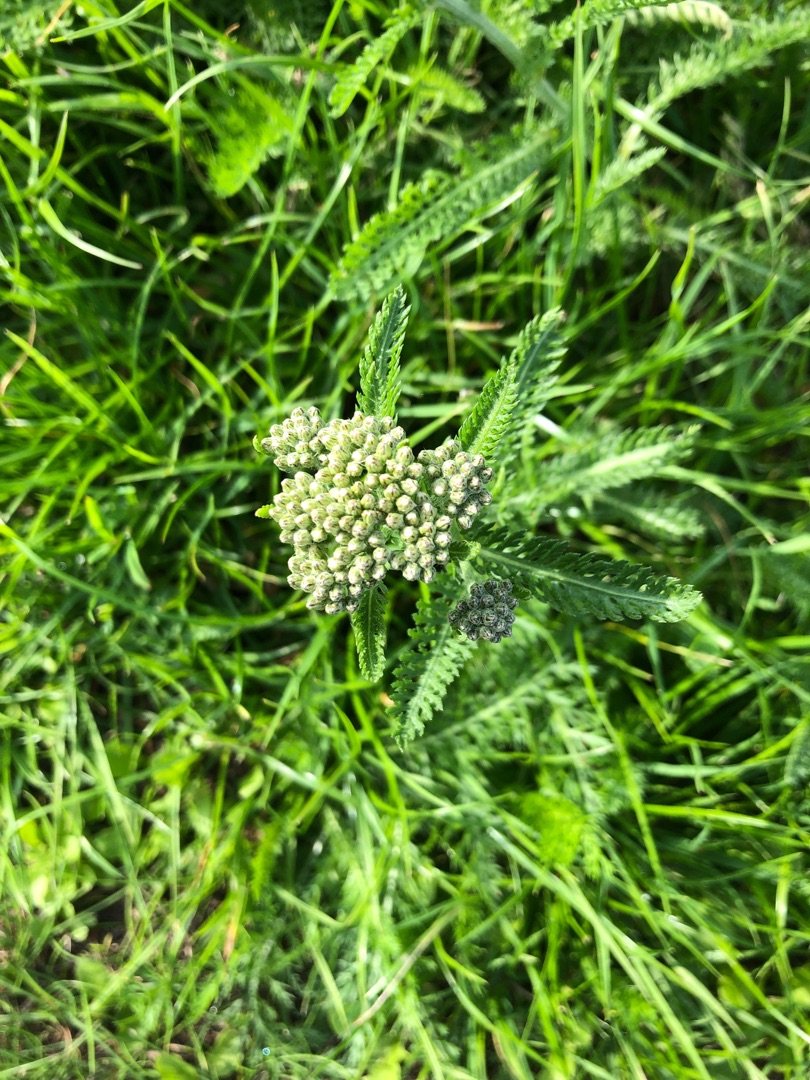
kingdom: Plantae
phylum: Tracheophyta
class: Magnoliopsida
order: Asterales
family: Asteraceae
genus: Achillea
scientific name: Achillea millefolium
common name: Almindelig røllike
